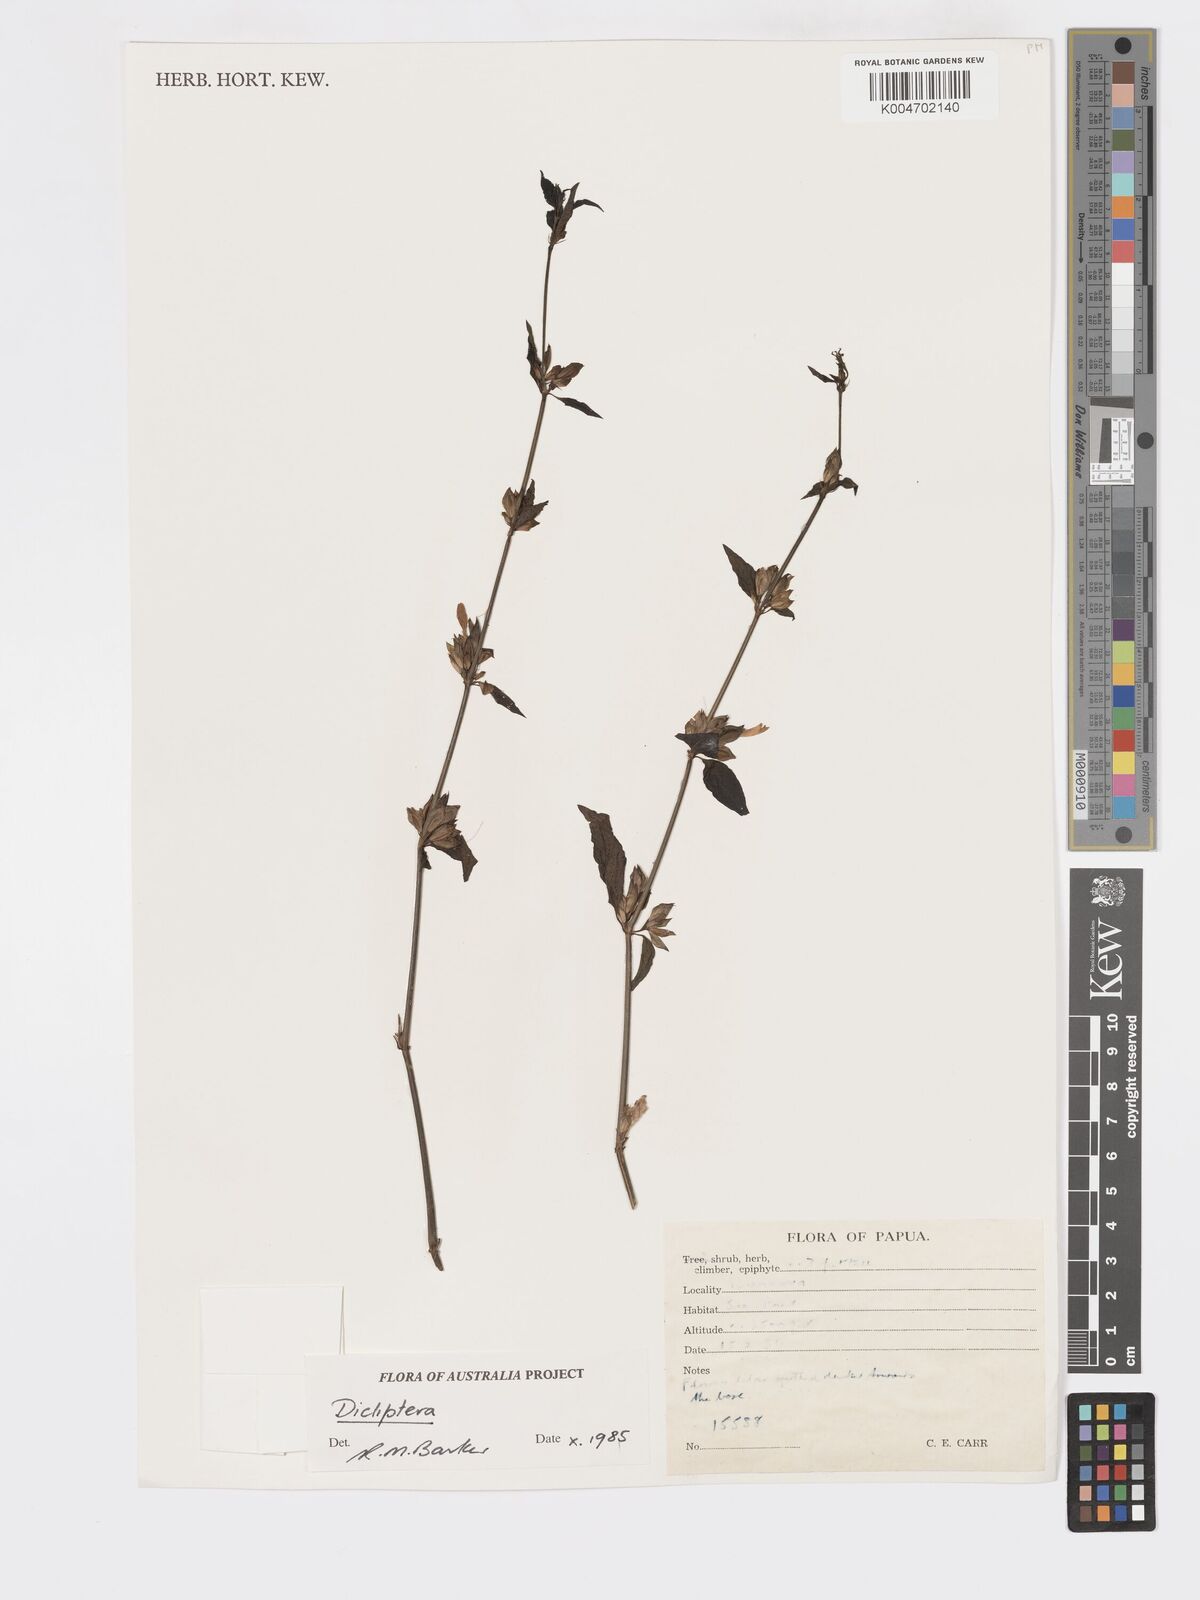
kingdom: Plantae
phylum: Tracheophyta
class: Magnoliopsida
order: Lamiales
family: Acanthaceae
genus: Dicliptera
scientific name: Dicliptera
